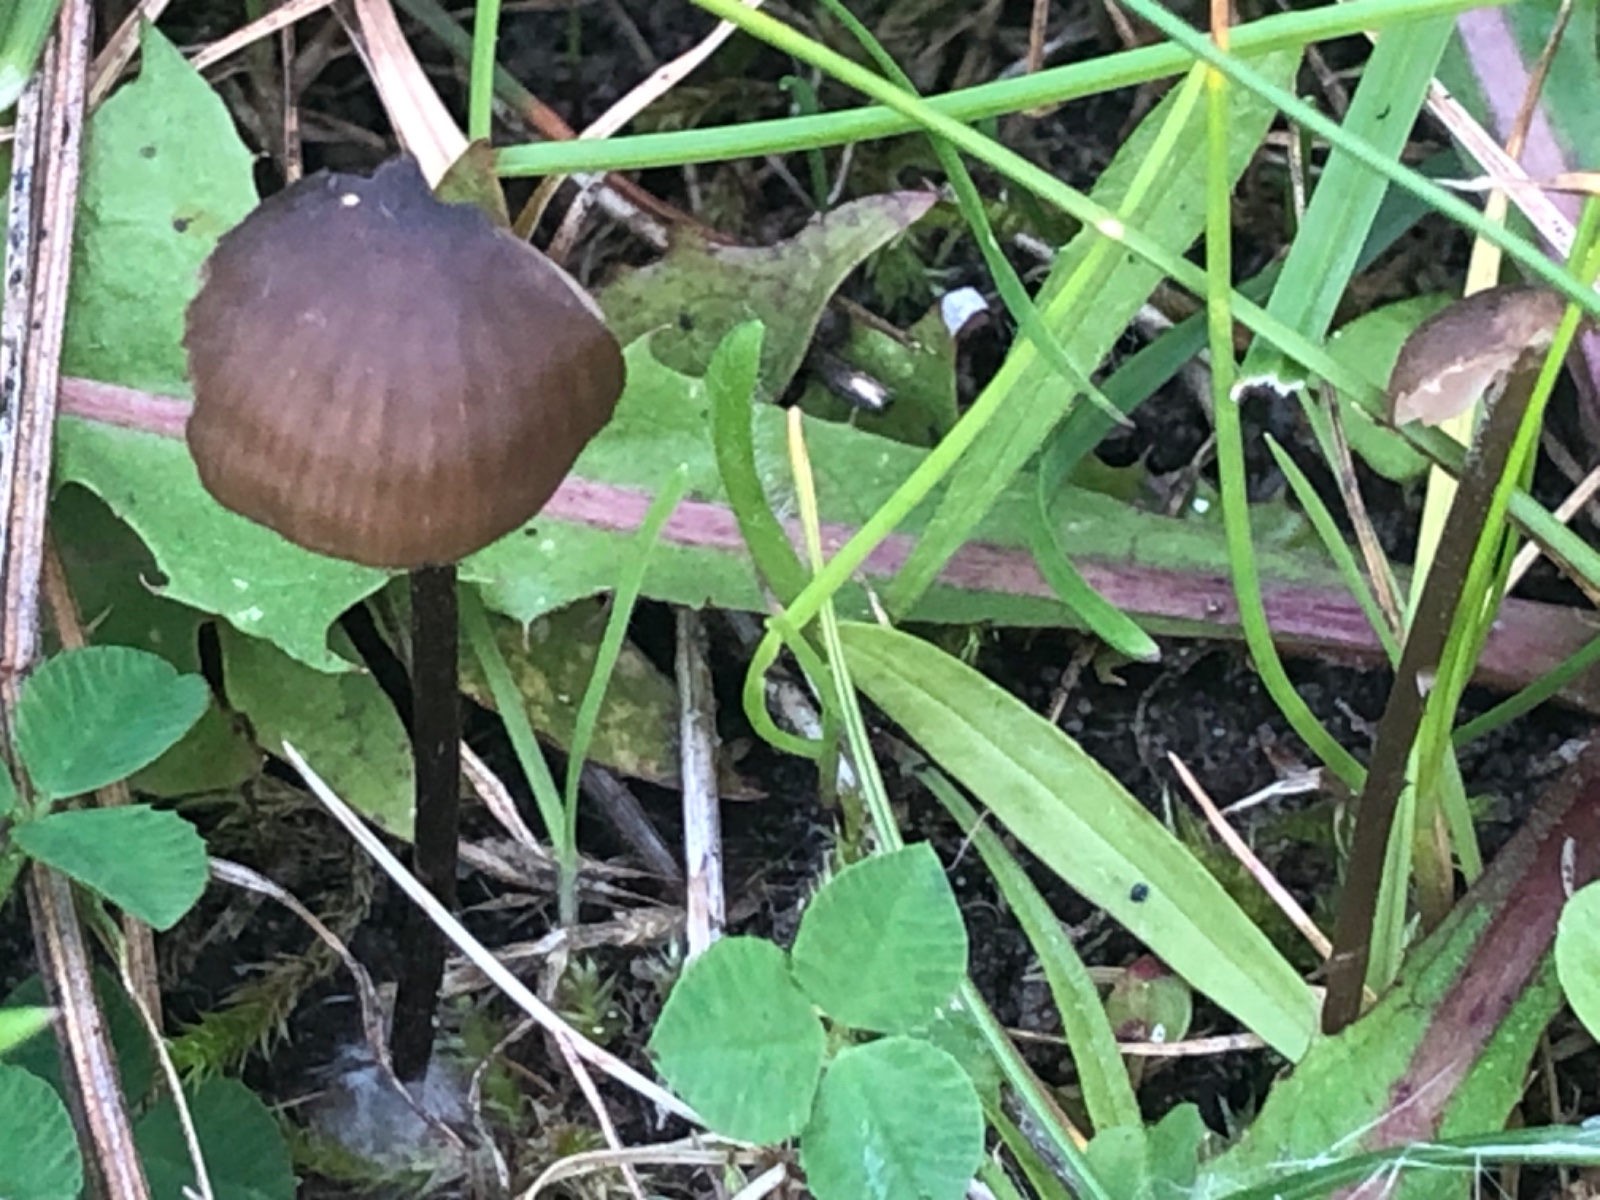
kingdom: Fungi
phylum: Basidiomycota
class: Agaricomycetes
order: Agaricales
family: Entolomataceae
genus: Entoloma
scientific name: Entoloma clandestinum
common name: tykbladet rødblad
